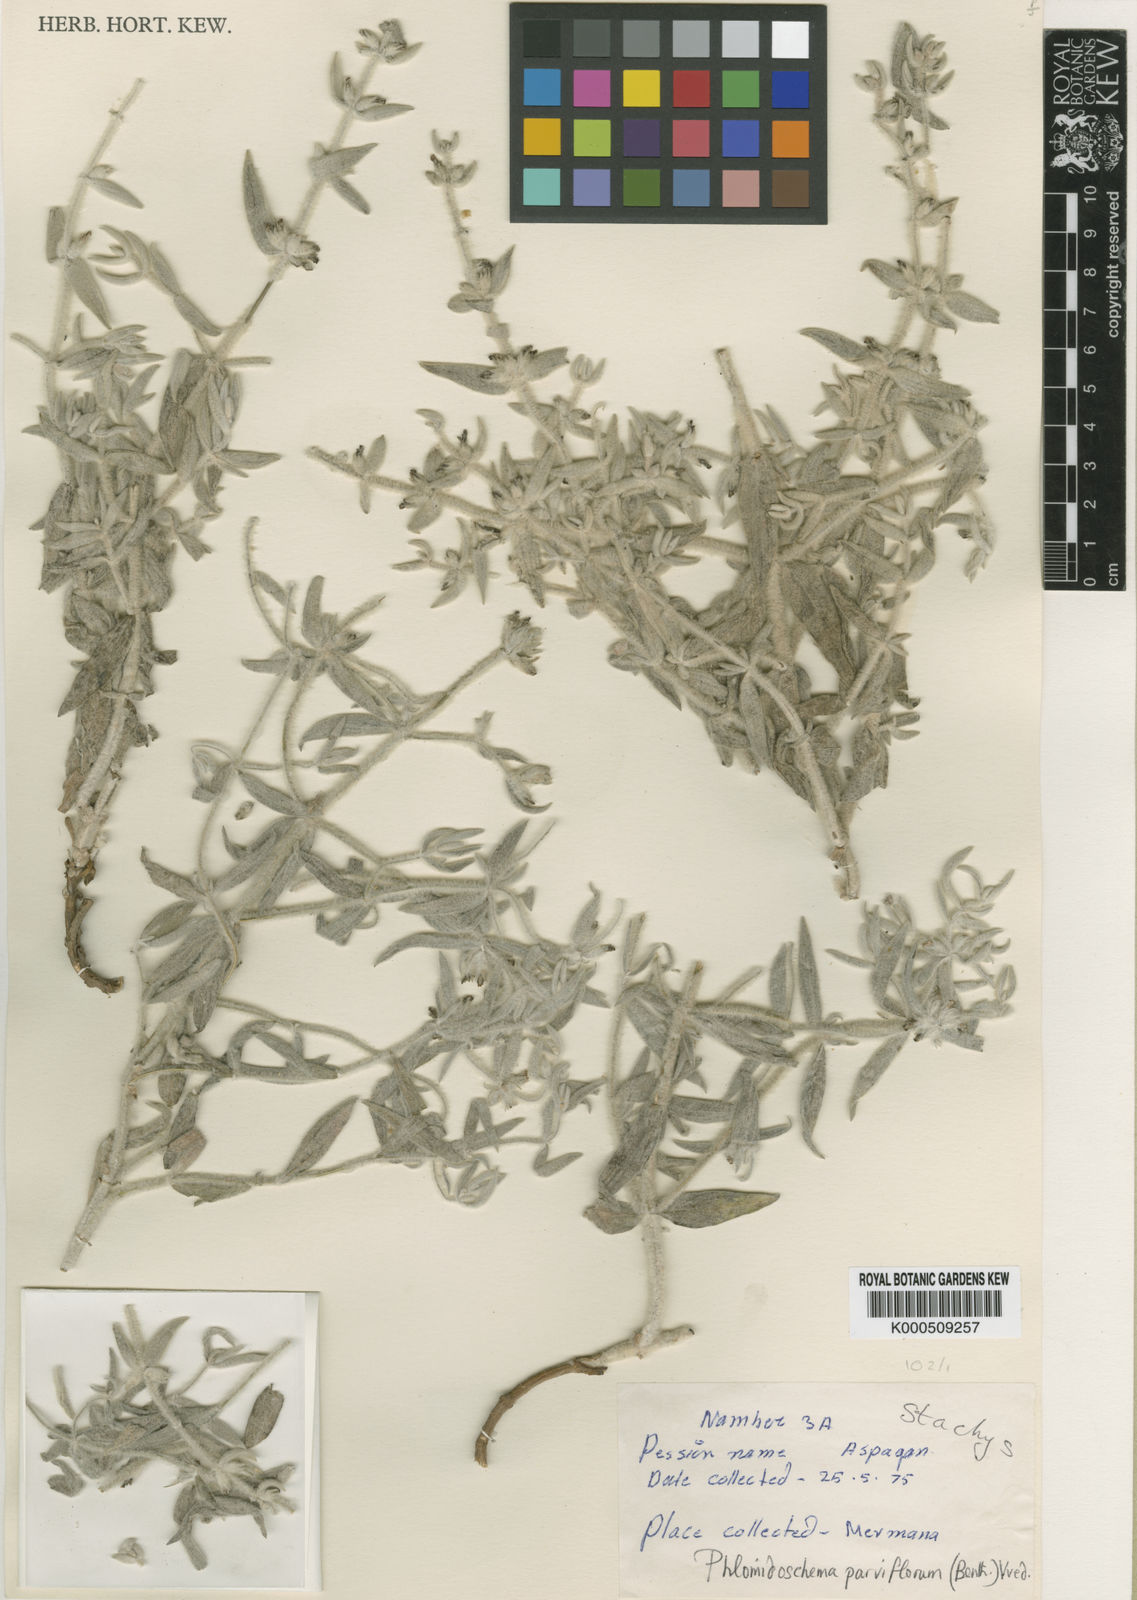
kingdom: Plantae
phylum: Tracheophyta
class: Magnoliopsida
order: Lamiales
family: Lamiaceae
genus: Phlomidoschema
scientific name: Phlomidoschema parviflorum
